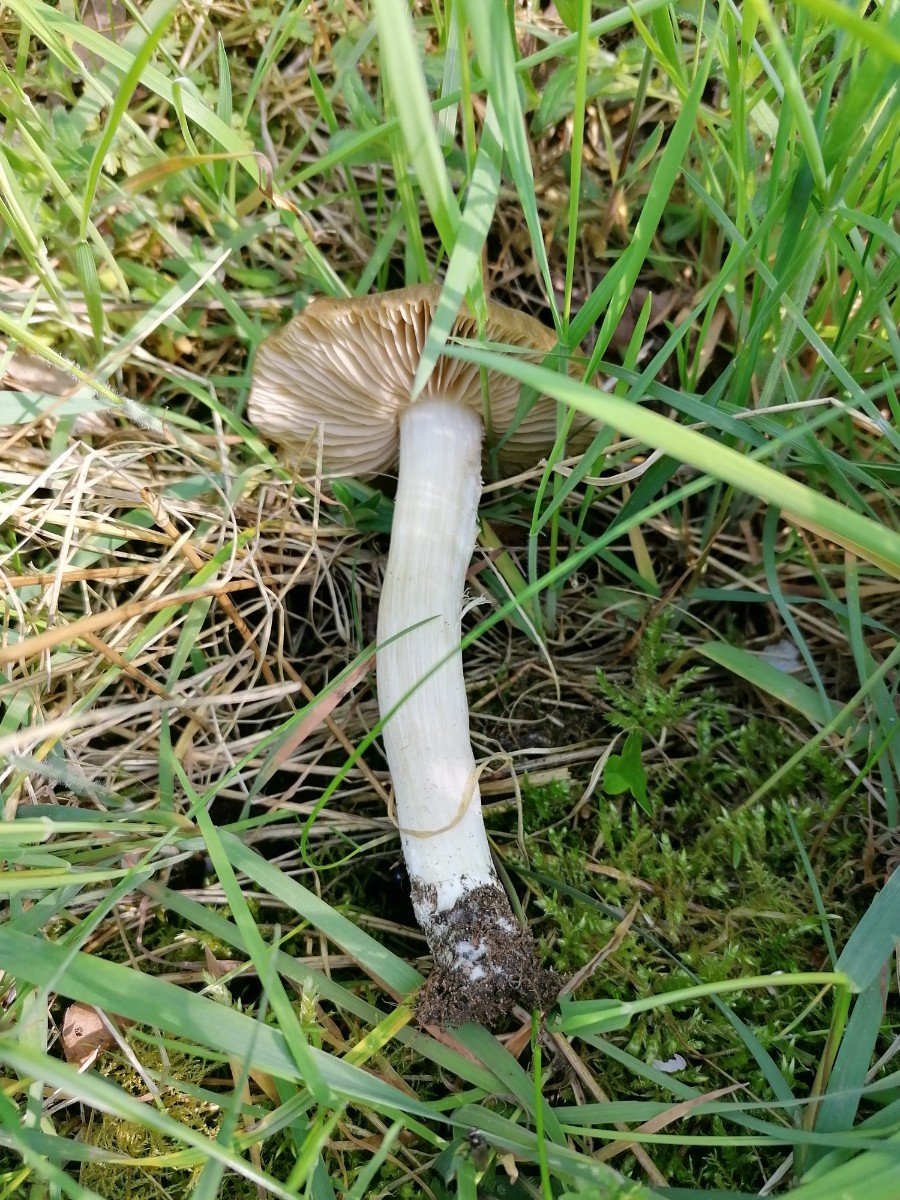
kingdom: Fungi
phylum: Basidiomycota
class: Agaricomycetes
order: Agaricales
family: Entolomataceae
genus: Entoloma
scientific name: Entoloma clypeatum
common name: flammet rødblad
